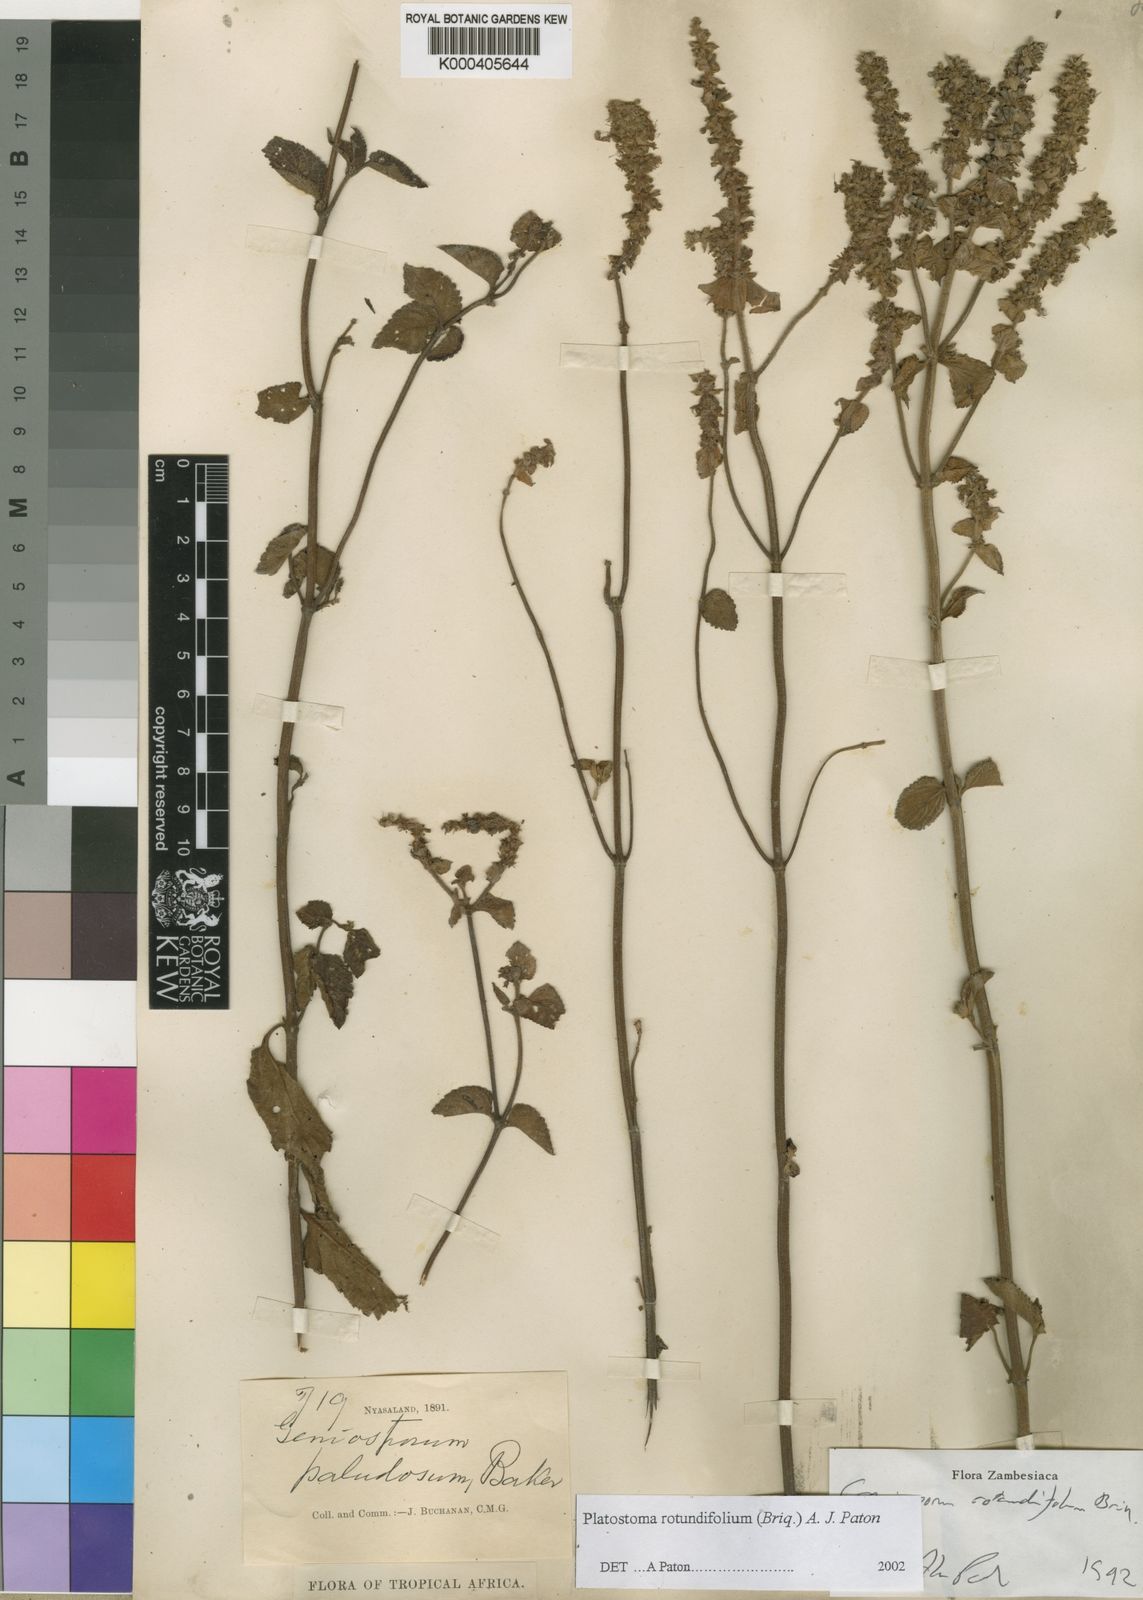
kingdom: Plantae
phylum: Tracheophyta
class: Magnoliopsida
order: Lamiales
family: Lamiaceae
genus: Platostoma
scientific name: Platostoma rotundifolium
